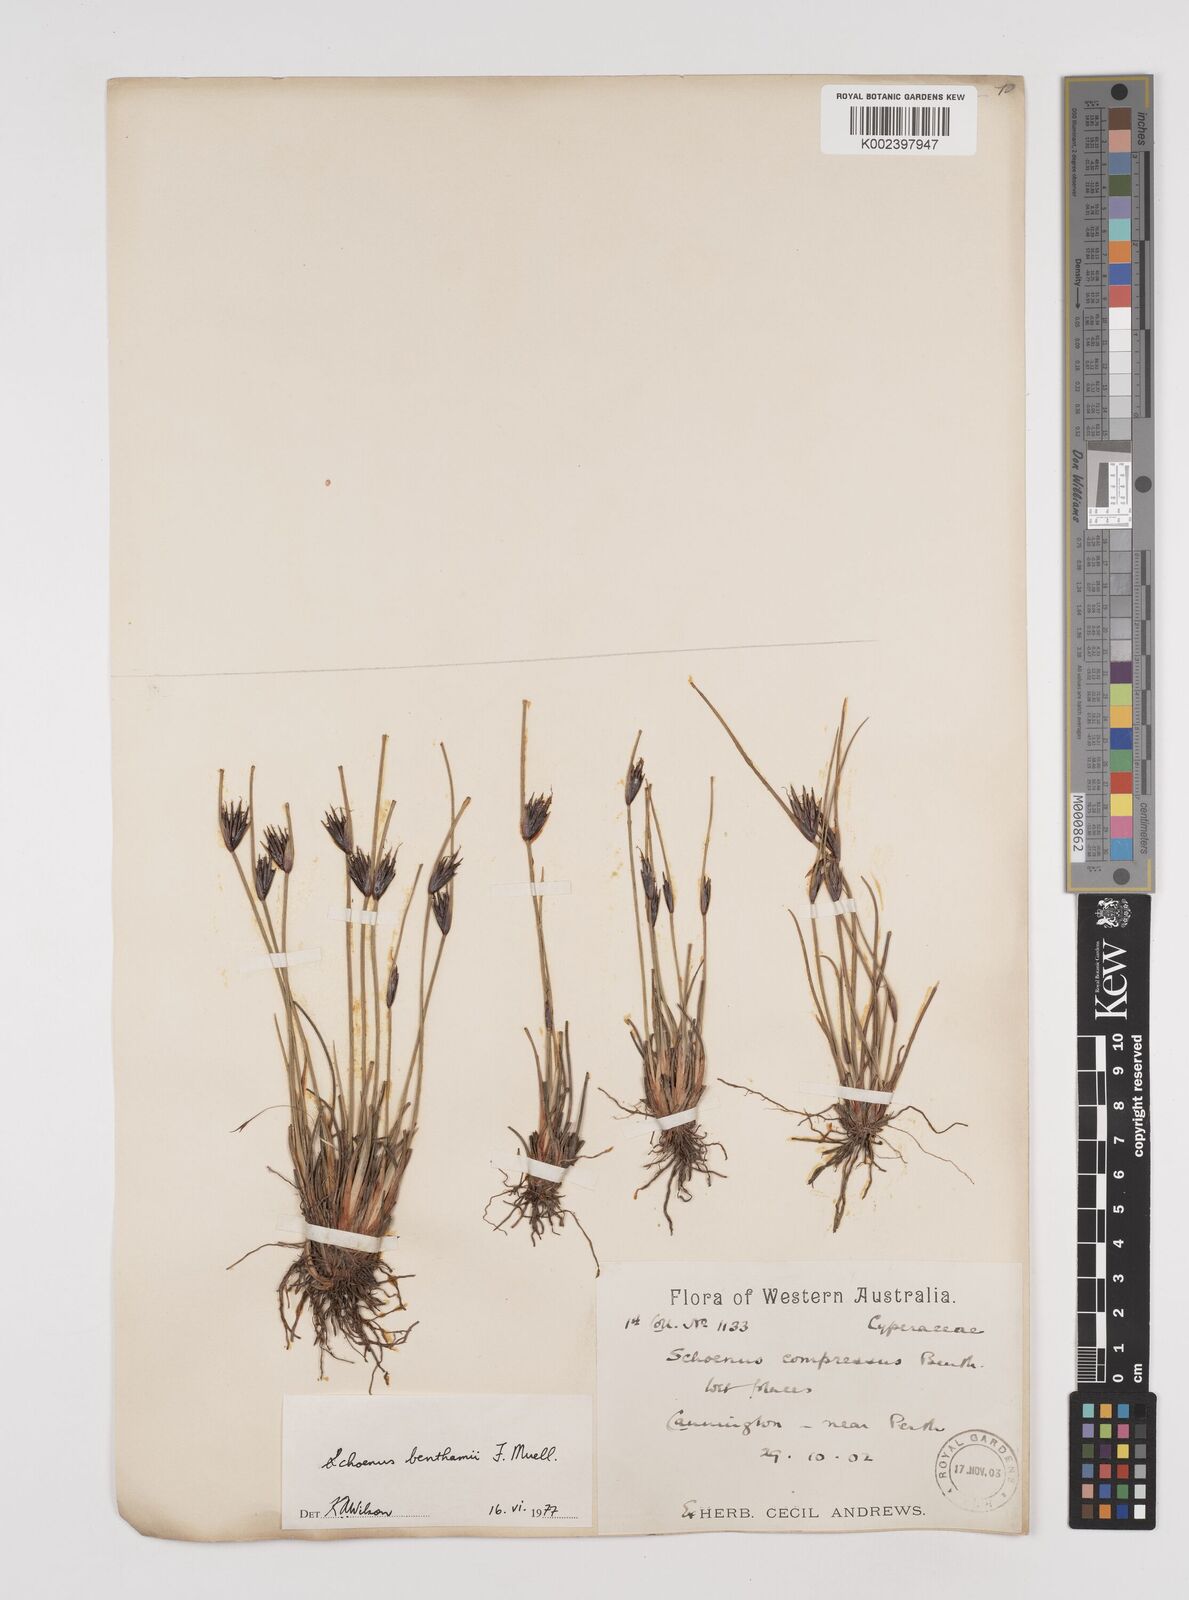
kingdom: Plantae
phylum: Tracheophyta
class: Liliopsida
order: Poales
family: Cyperaceae
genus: Schoenus
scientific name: Schoenus benthamii
